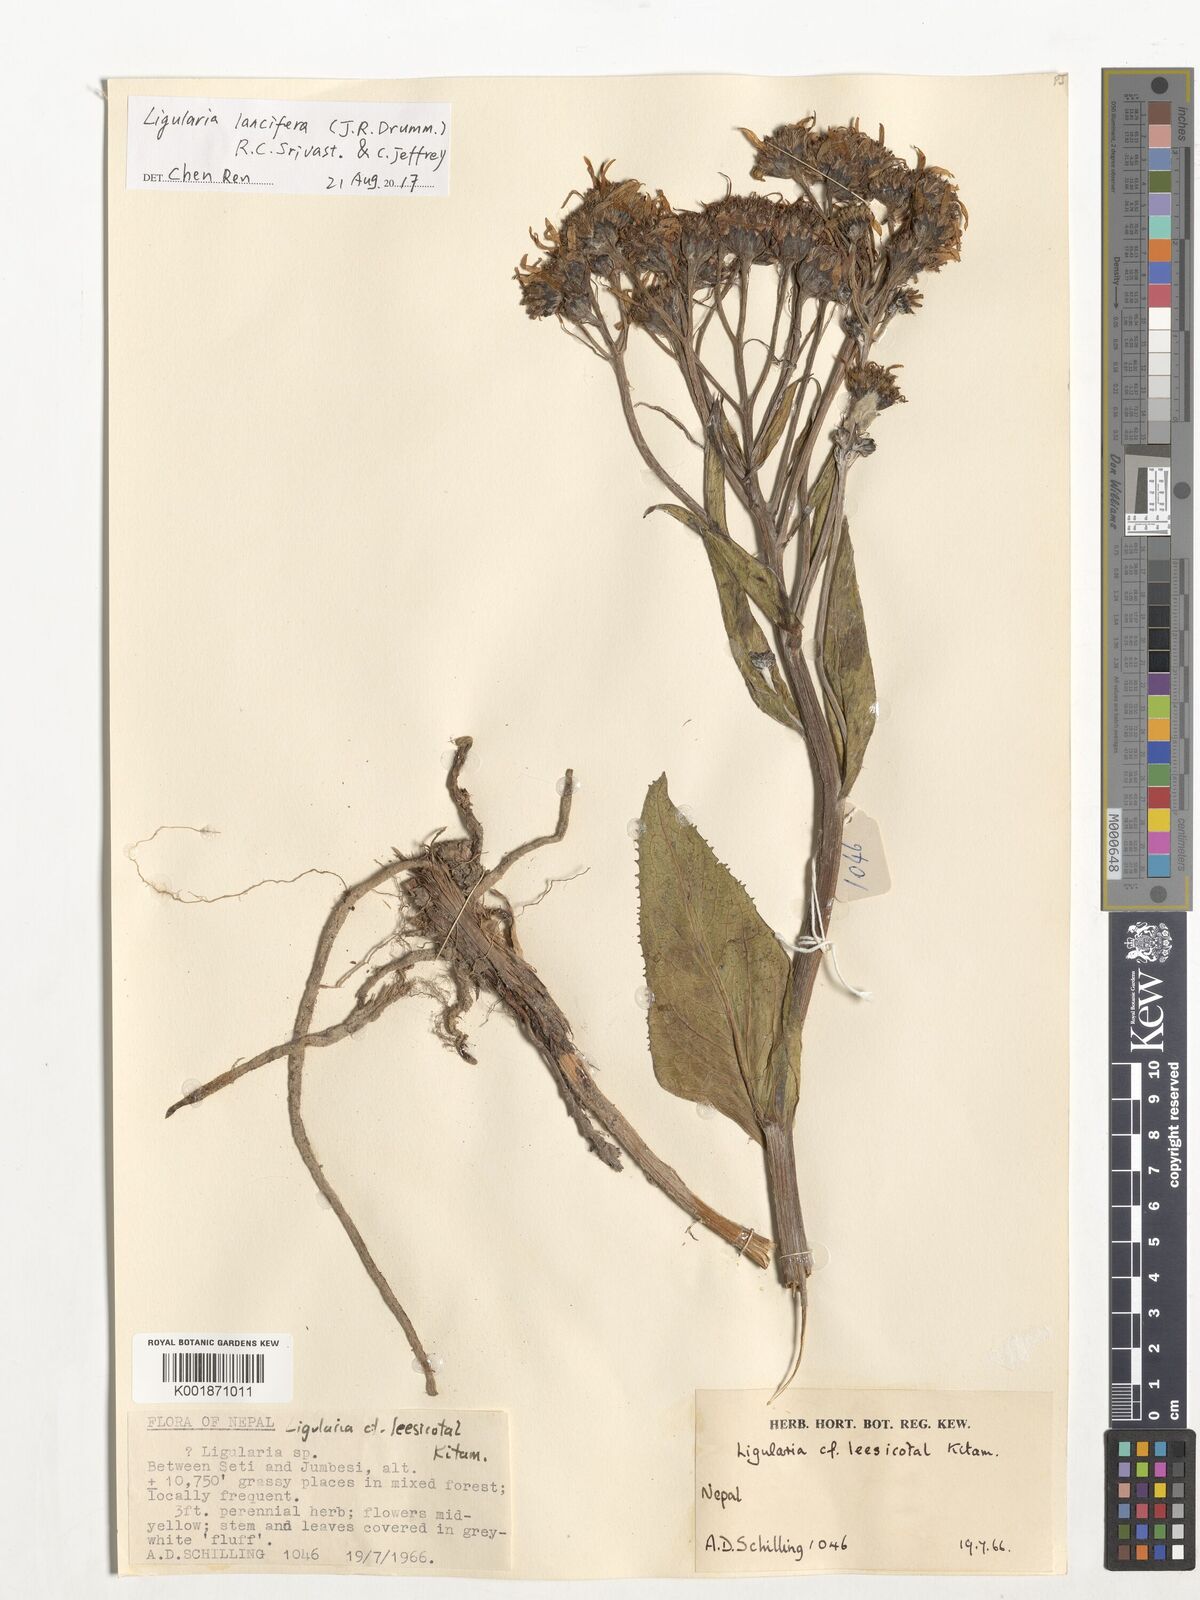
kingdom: Plantae
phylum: Tracheophyta
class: Magnoliopsida
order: Asterales
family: Asteraceae
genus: Ligularia
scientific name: Ligularia lancifera
